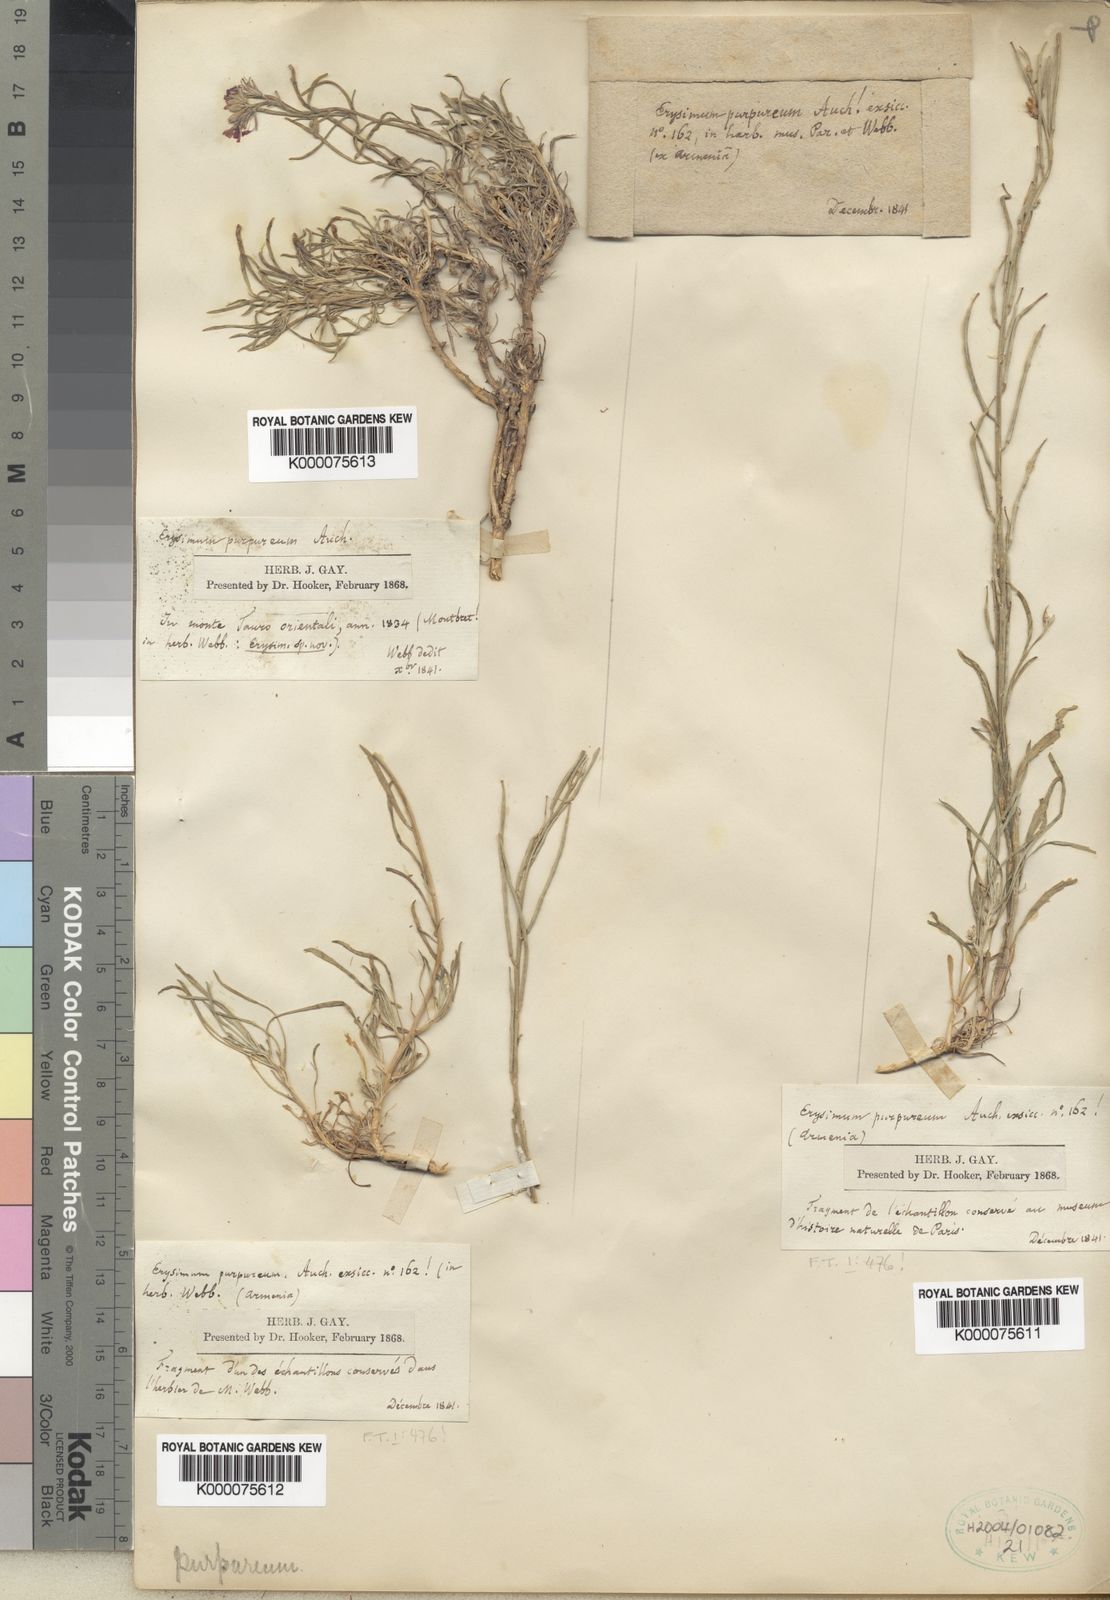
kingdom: Plantae
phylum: Tracheophyta
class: Magnoliopsida
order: Brassicales
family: Brassicaceae
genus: Erysimum
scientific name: Erysimum
